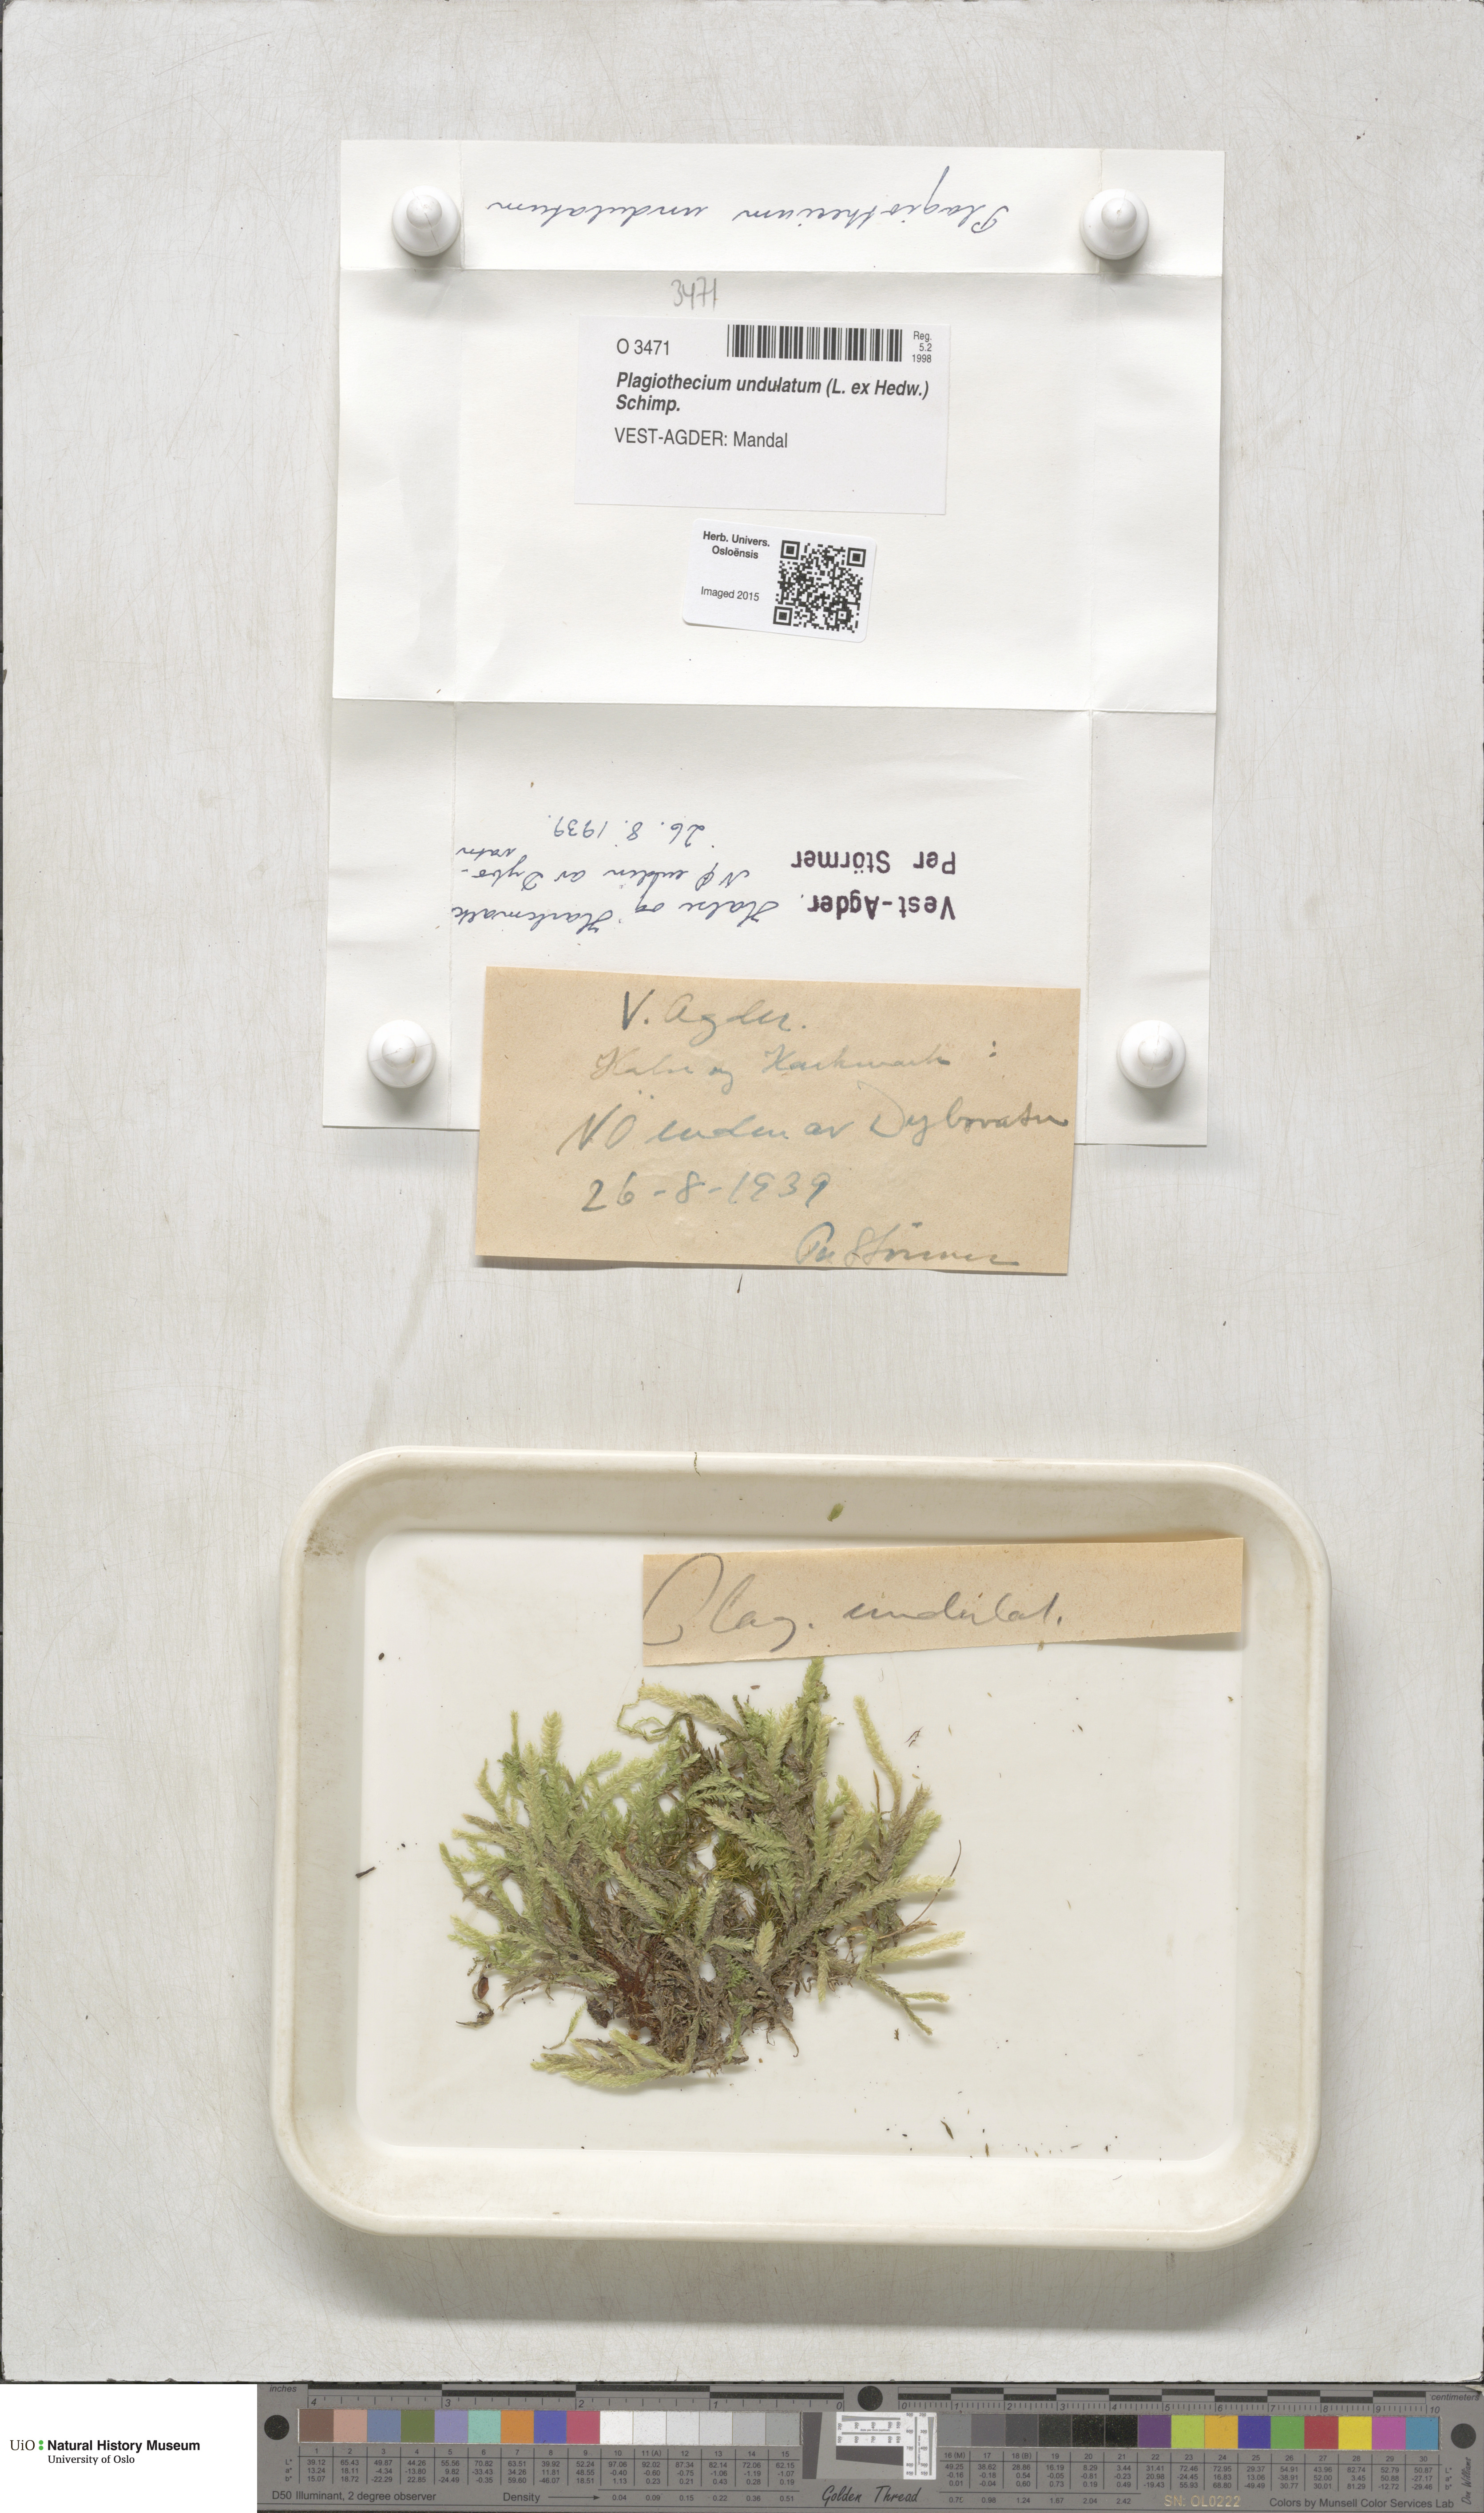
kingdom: Plantae
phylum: Bryophyta
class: Bryopsida
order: Hypnales
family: Plagiotheciaceae
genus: Plagiothecium
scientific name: Plagiothecium undulatum
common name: Waved silk-moss
